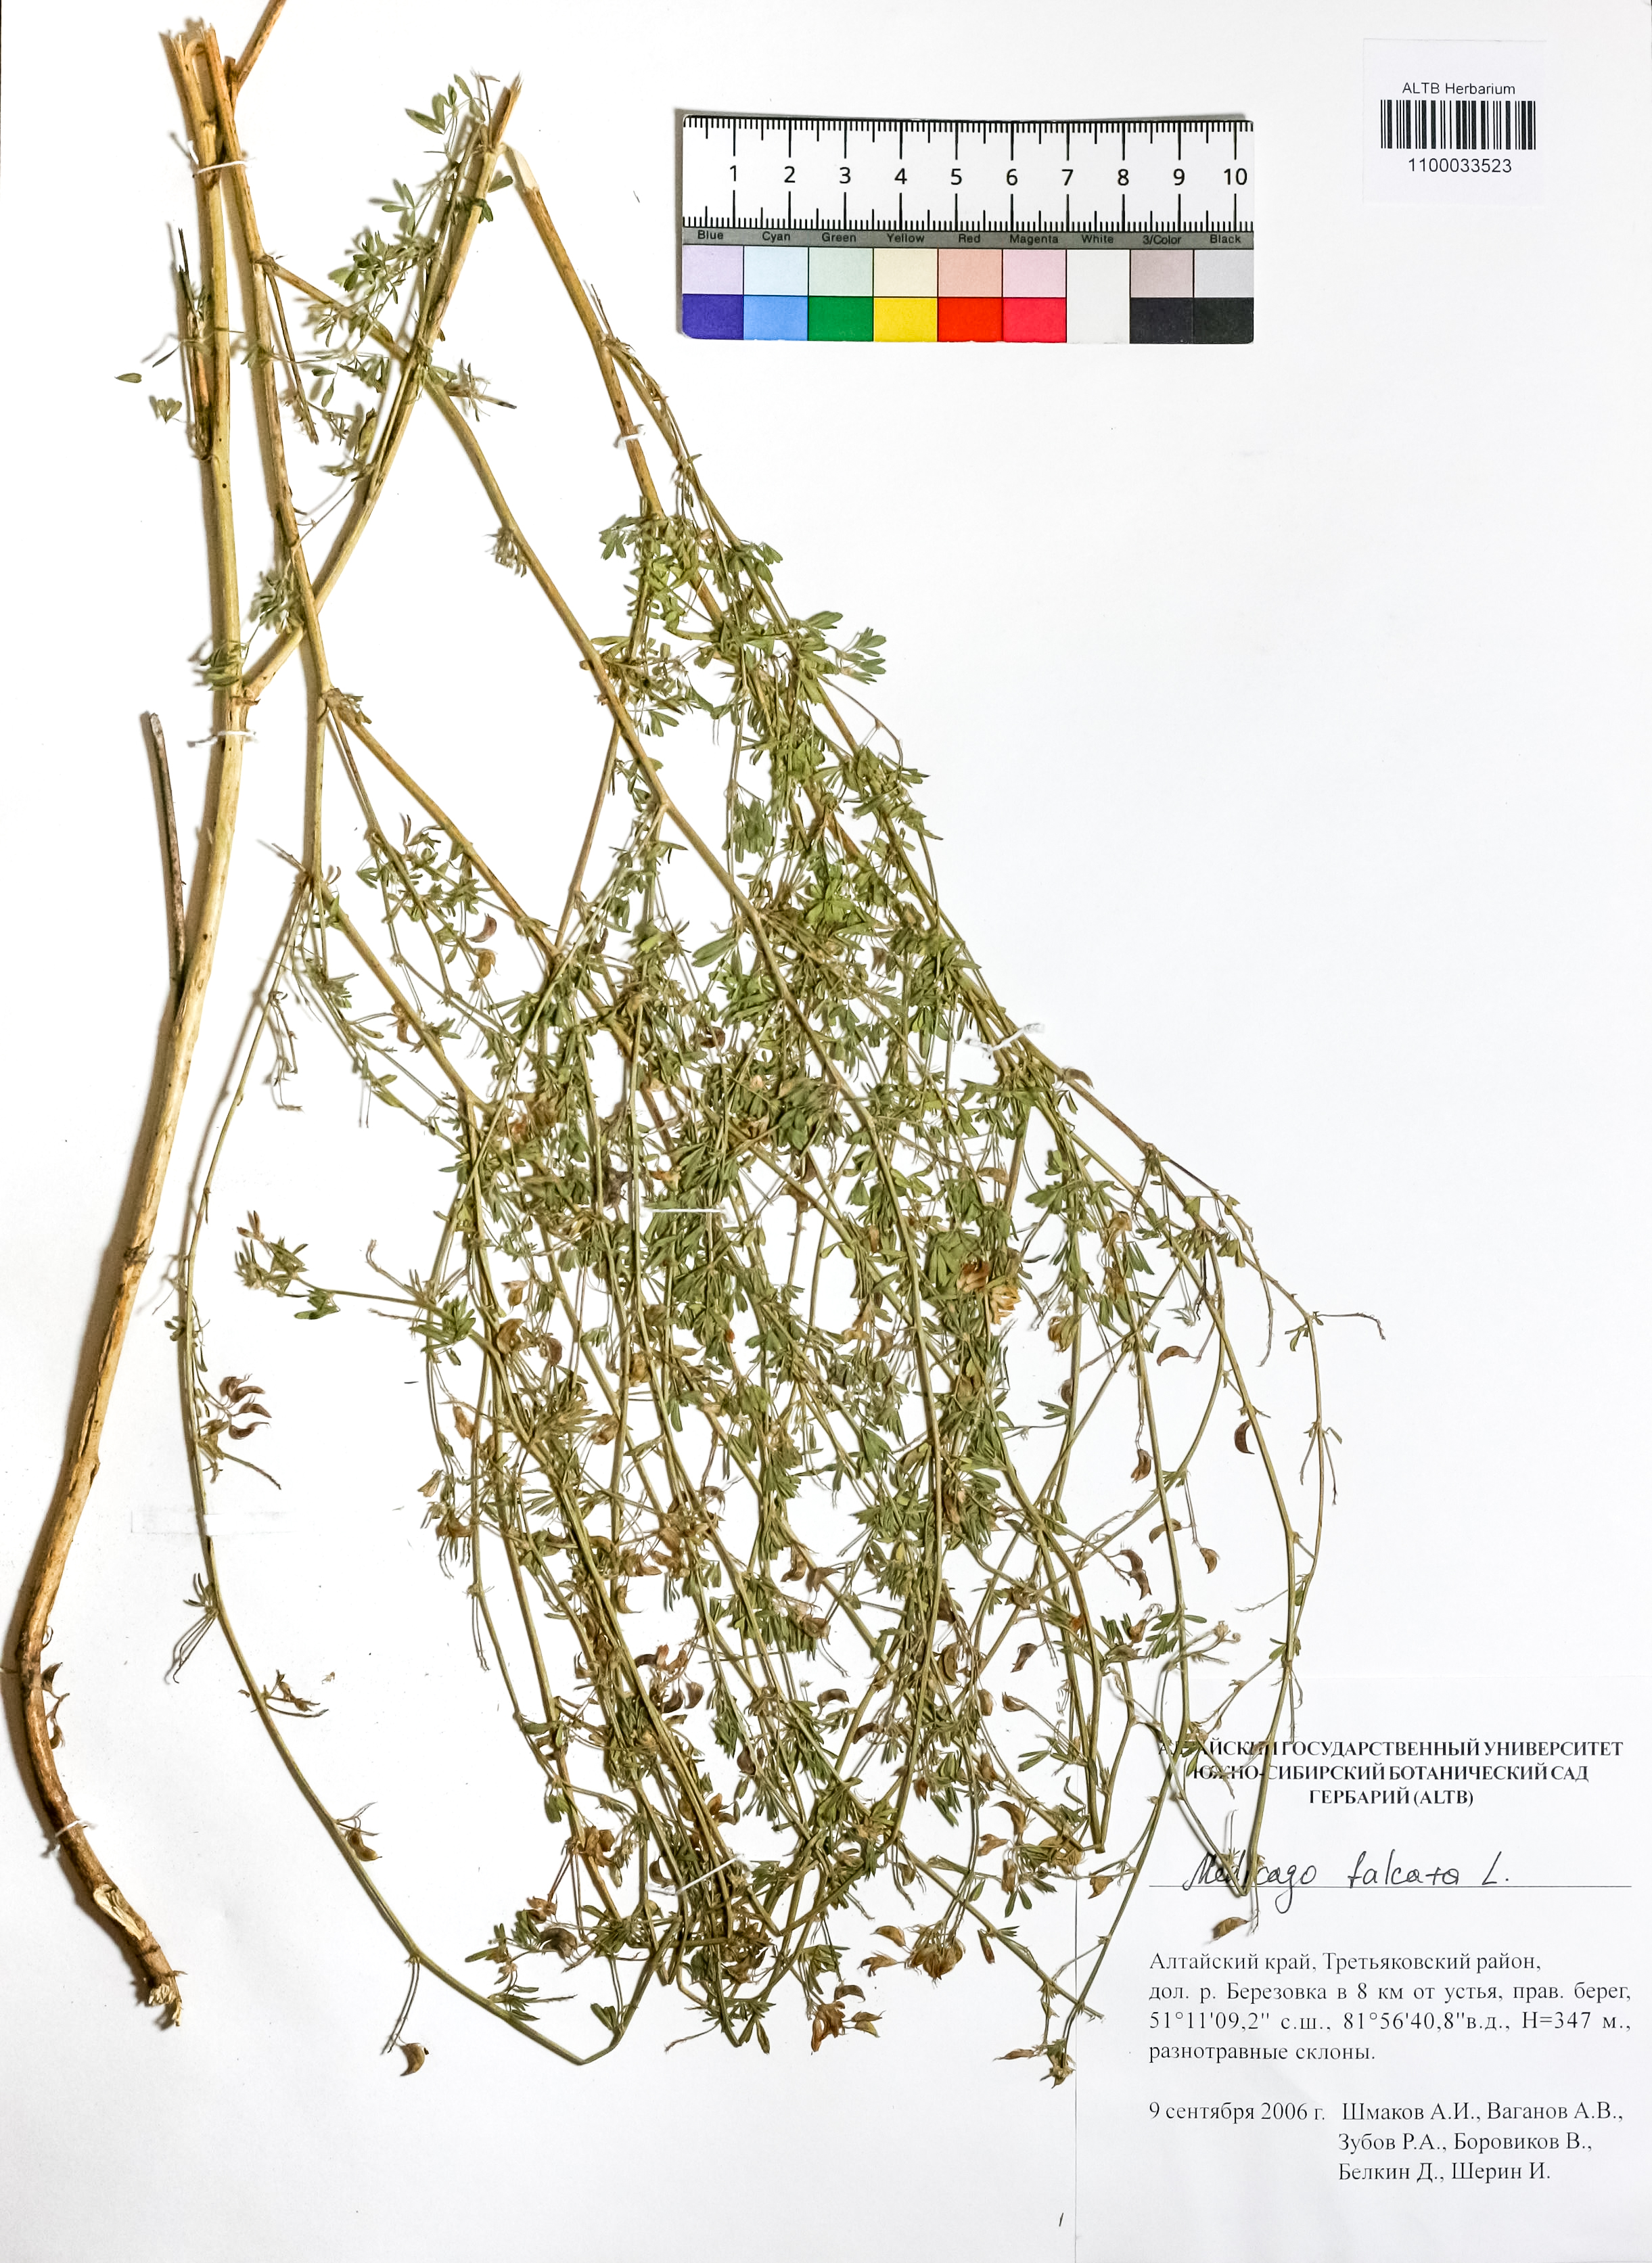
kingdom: Plantae
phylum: Tracheophyta
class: Magnoliopsida
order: Fabales
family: Fabaceae
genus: Medicago
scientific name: Medicago falcata
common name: Sickle medick
